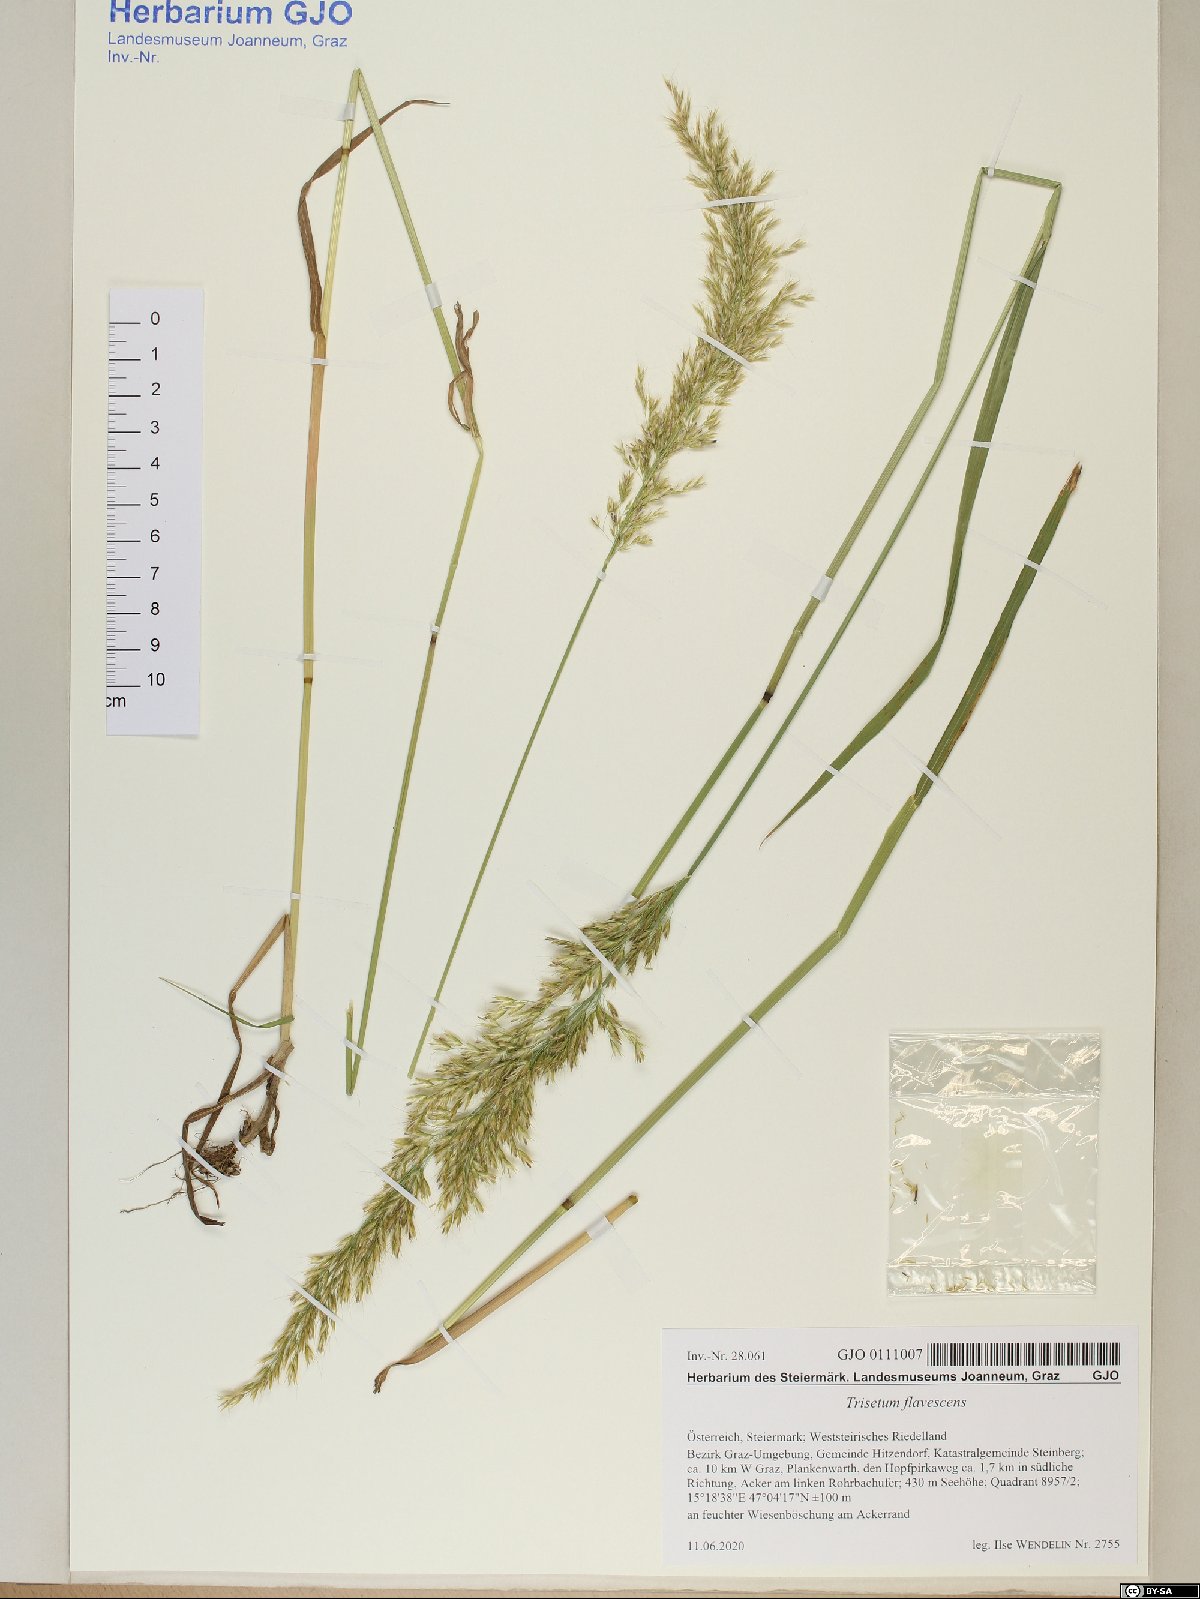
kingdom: Plantae
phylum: Tracheophyta
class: Liliopsida
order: Poales
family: Poaceae
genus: Trisetum
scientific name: Trisetum flavescens
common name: Yellow oat-grass
